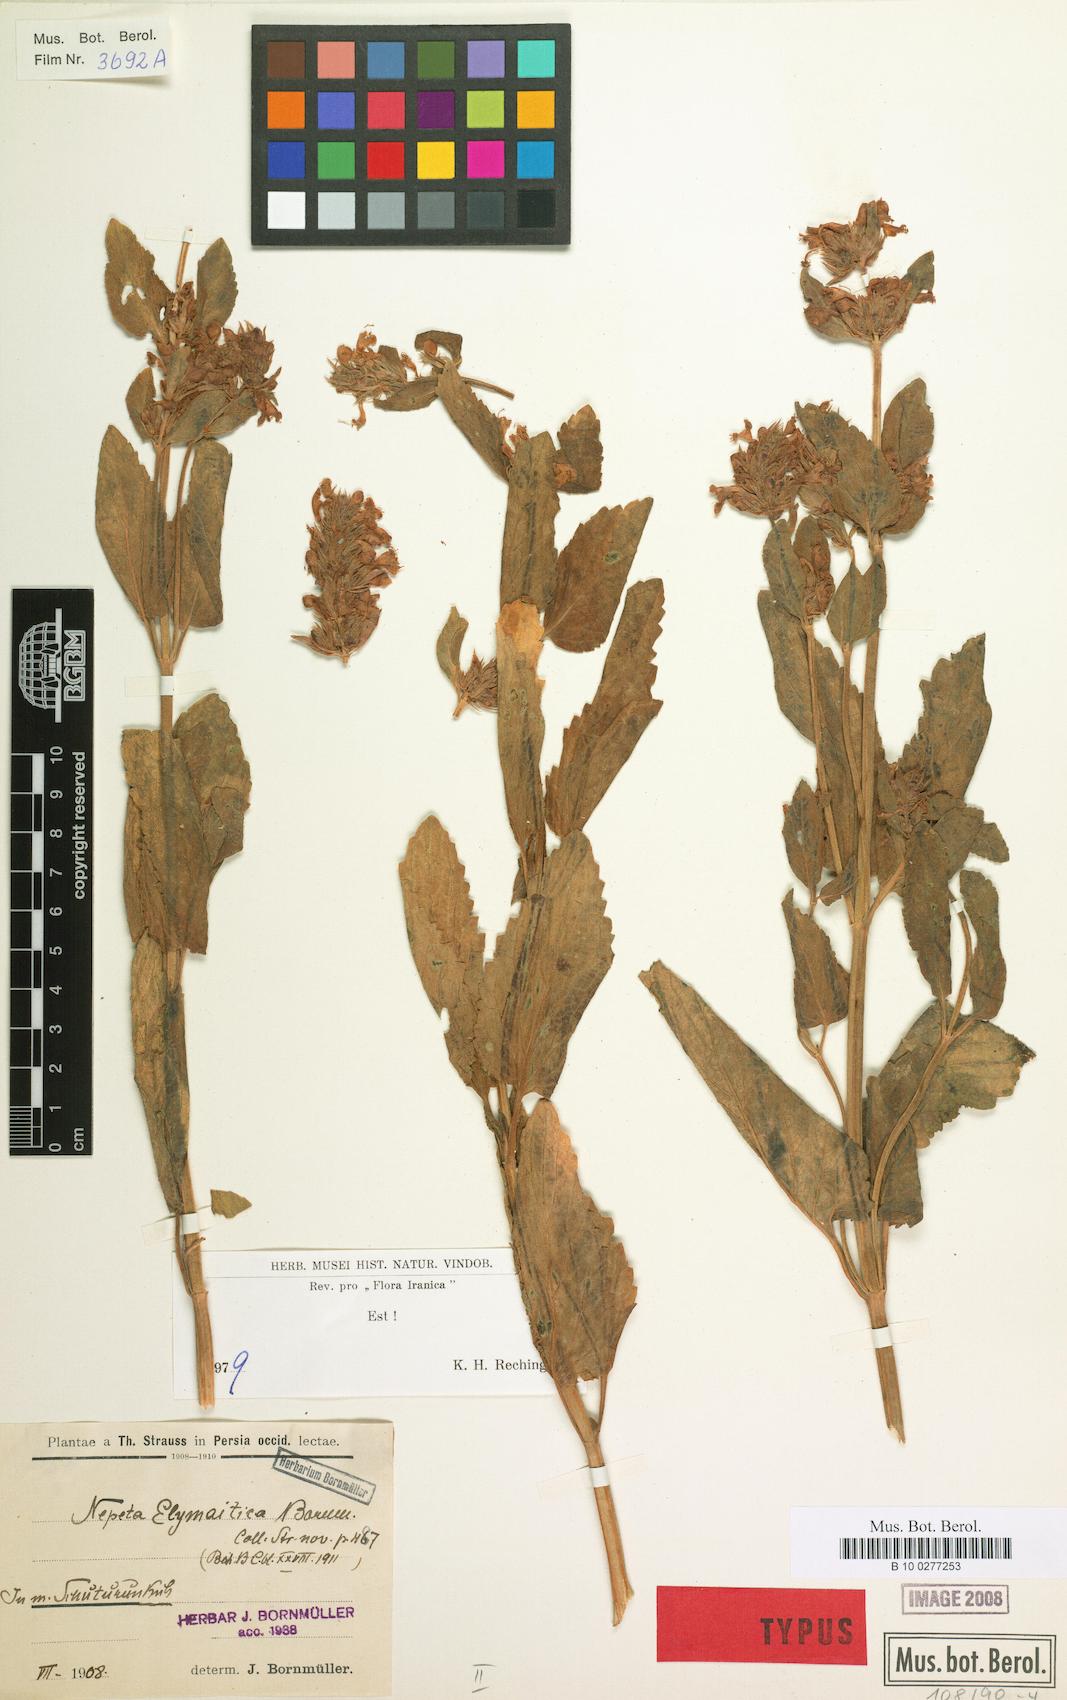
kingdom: Plantae
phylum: Tracheophyta
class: Magnoliopsida
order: Lamiales
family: Lamiaceae
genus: Nepeta
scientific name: Nepeta elymaitica
